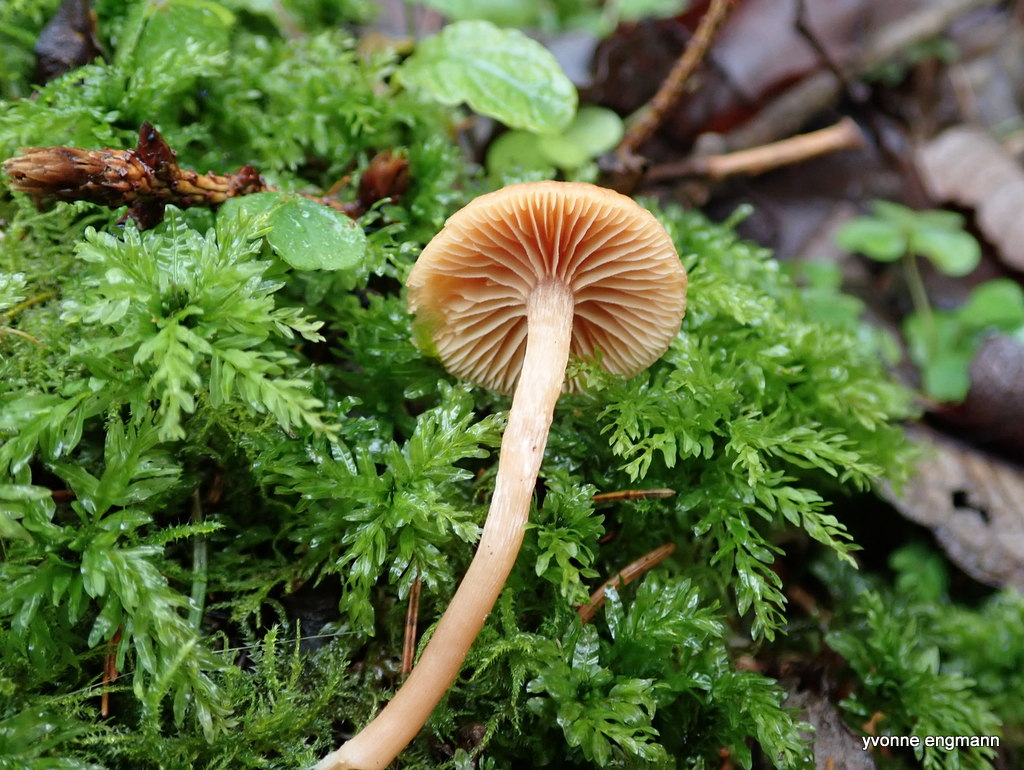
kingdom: Fungi
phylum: Basidiomycota
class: Agaricomycetes
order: Agaricales
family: Tubariaceae
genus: Tubaria
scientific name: Tubaria furfuracea
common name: kliddet fnughat
